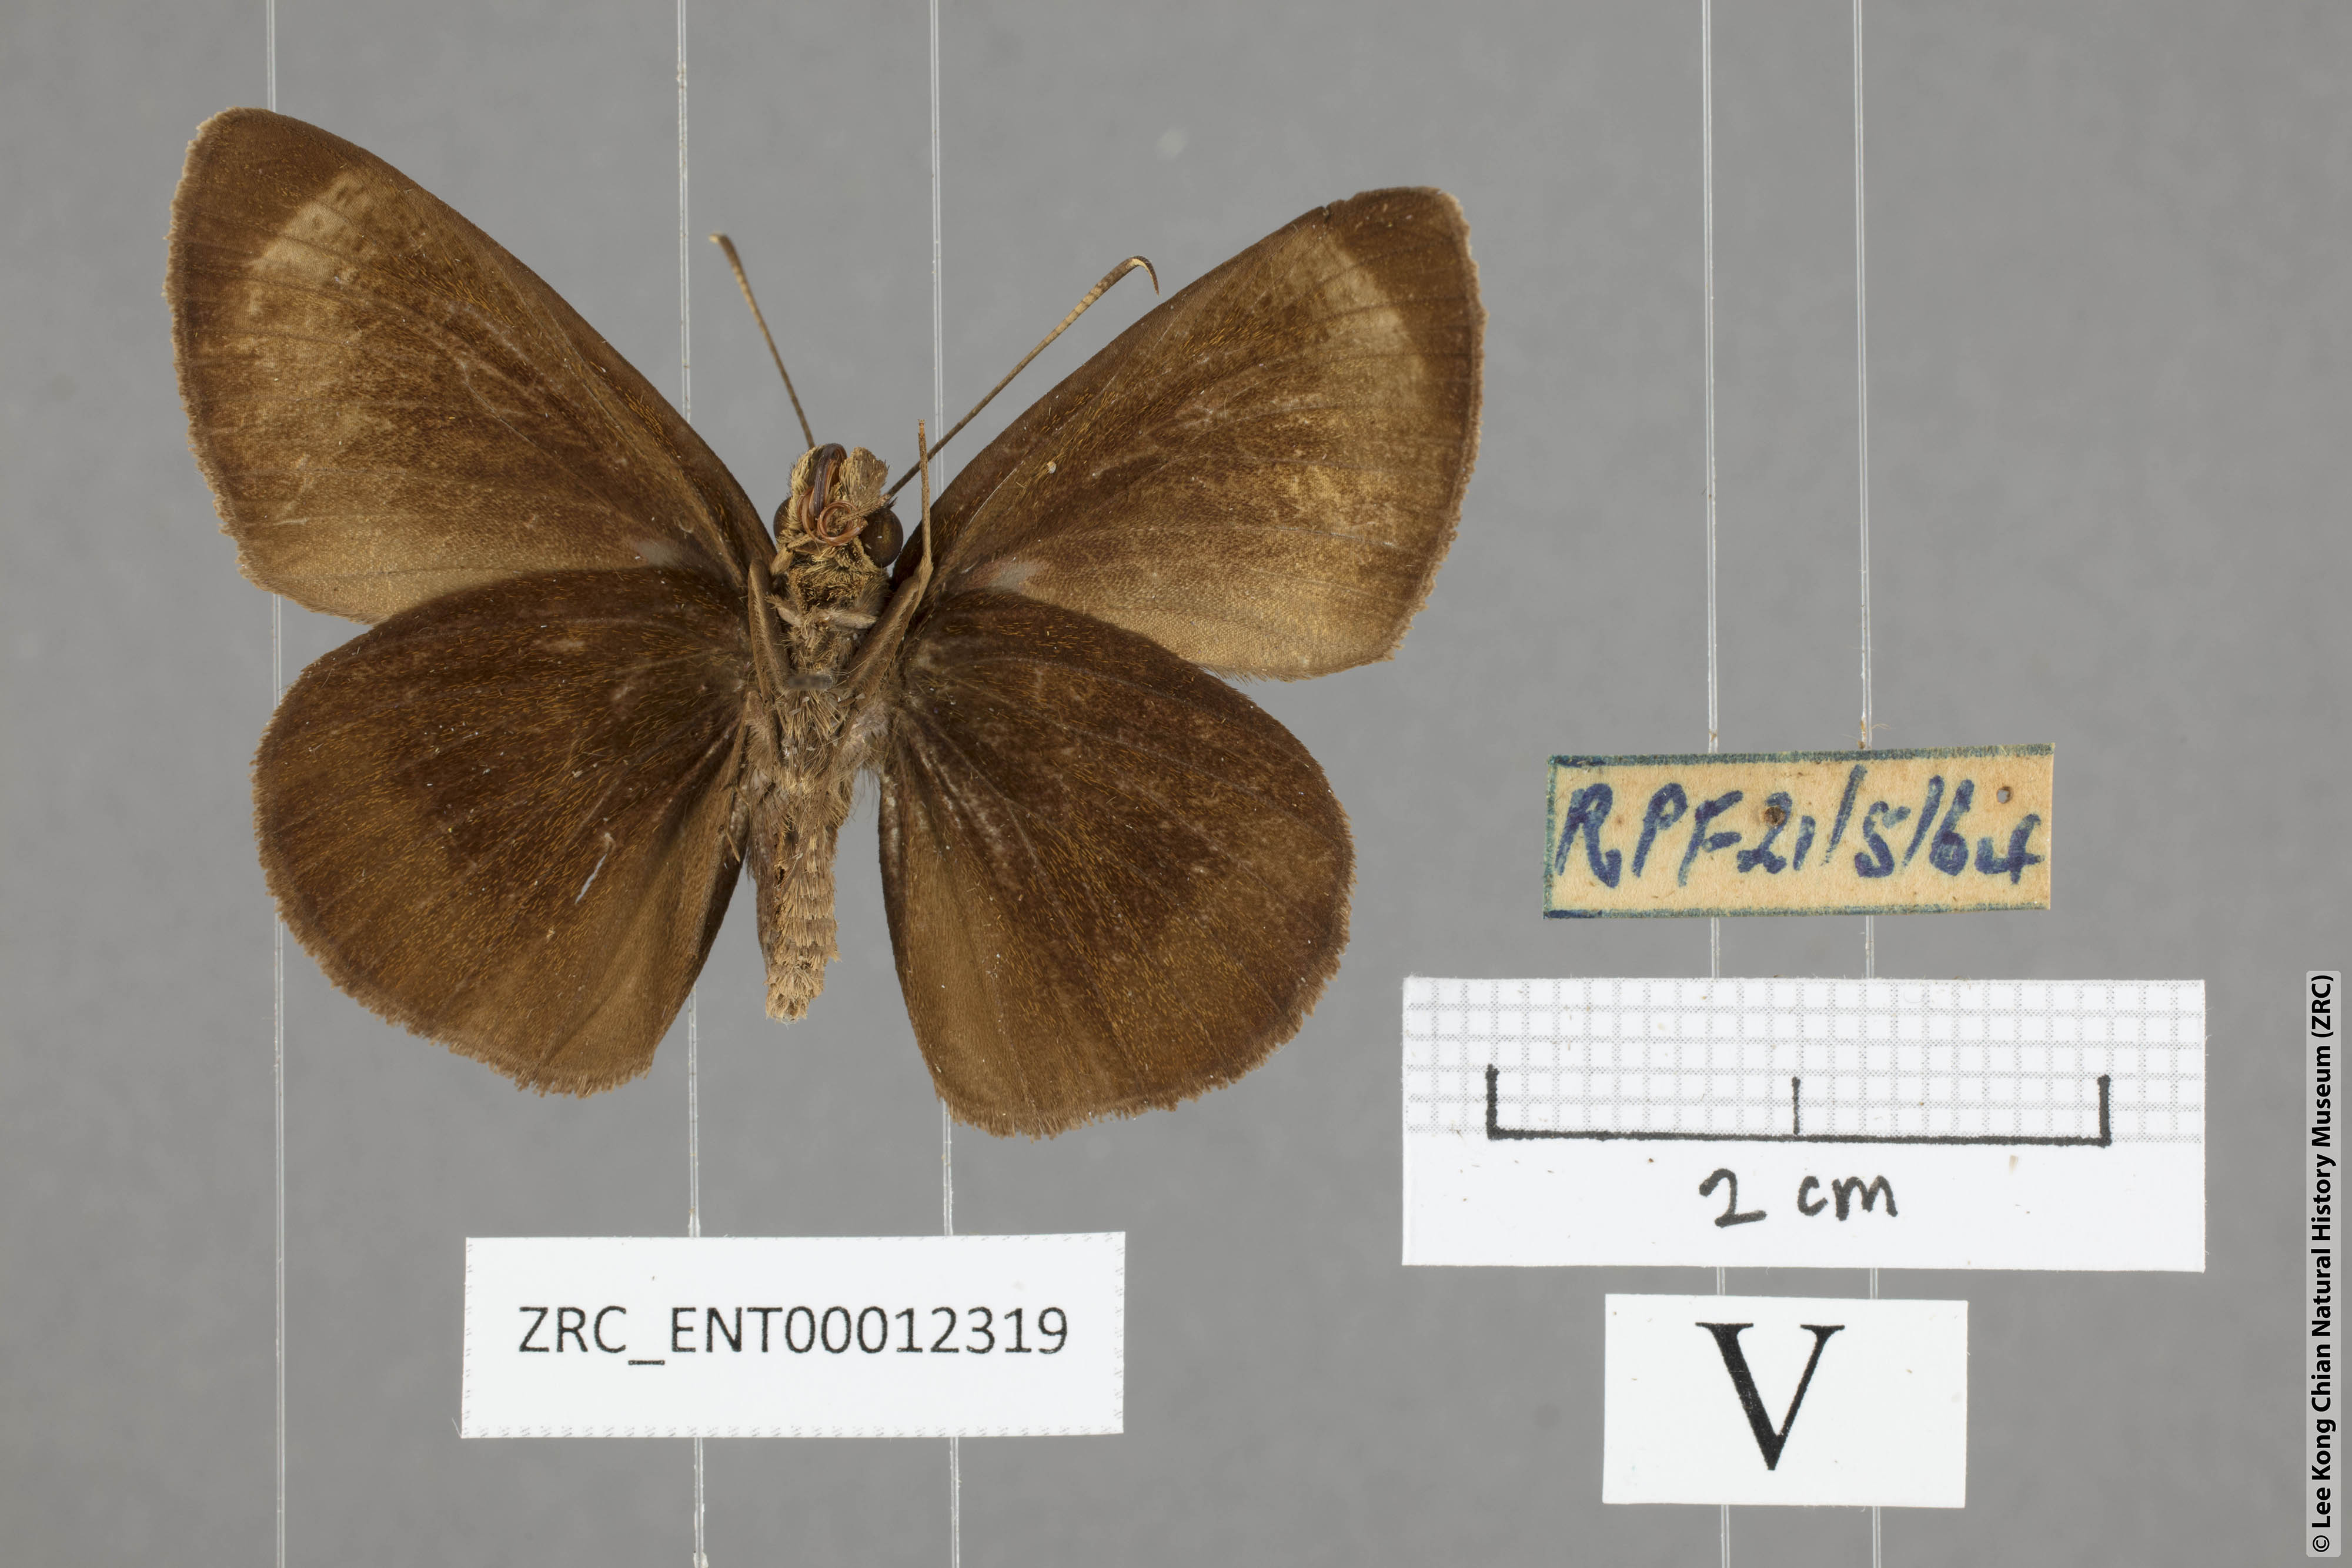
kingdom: Animalia
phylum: Arthropoda
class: Insecta
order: Lepidoptera
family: Hesperiidae
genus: Ancistroides
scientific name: Ancistroides nigrita
